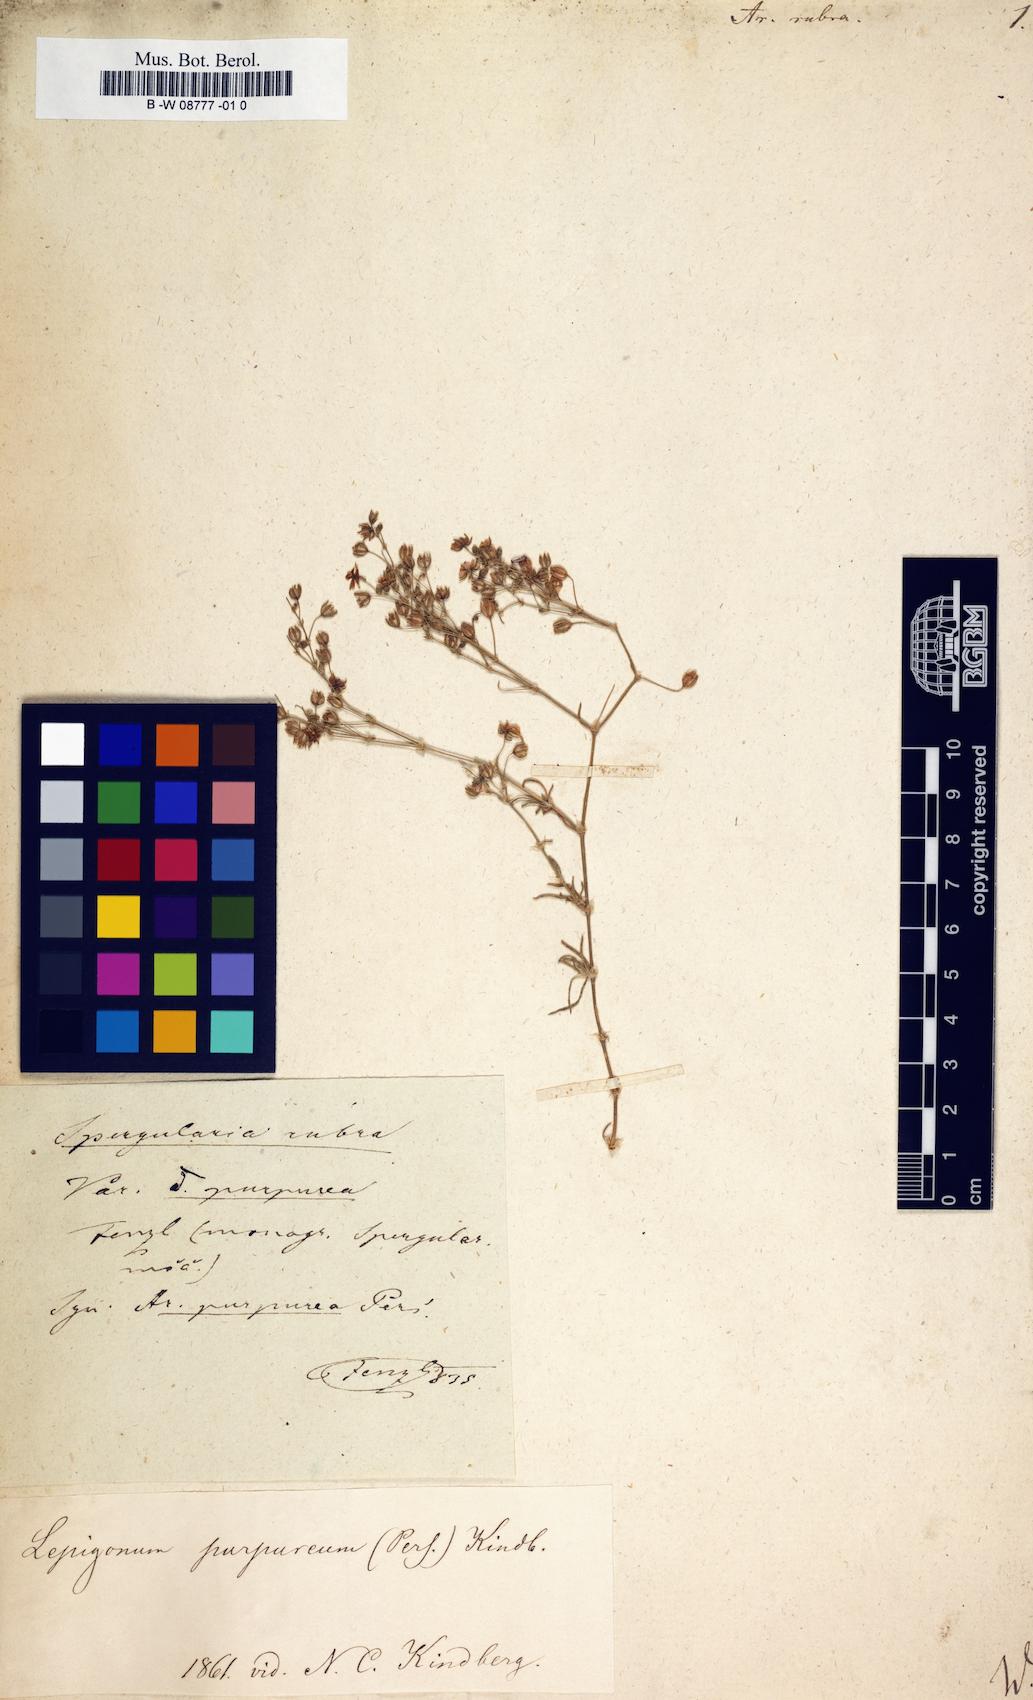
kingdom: Plantae
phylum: Tracheophyta
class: Magnoliopsida
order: Caryophyllales
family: Caryophyllaceae
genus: Spergularia
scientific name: Spergularia rubra
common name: Red sand-spurrey
